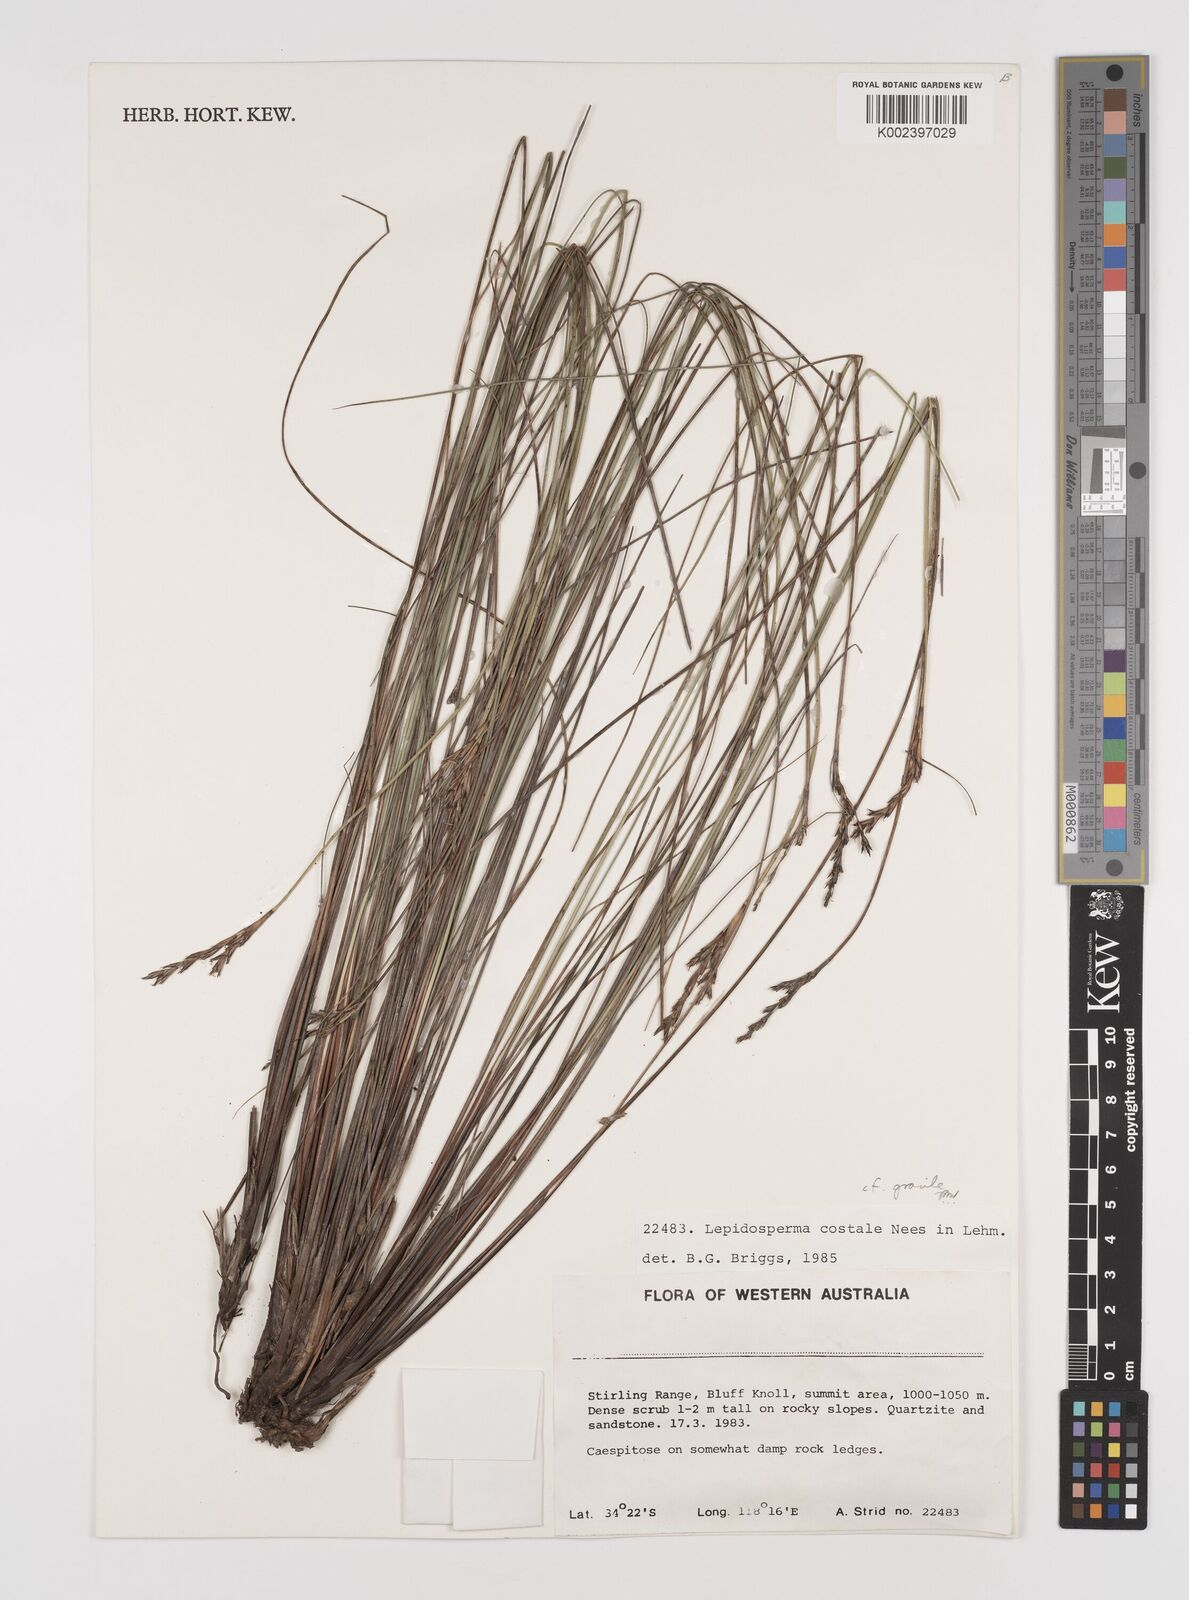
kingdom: Plantae
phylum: Tracheophyta
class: Liliopsida
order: Poales
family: Cyperaceae
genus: Lepidosperma
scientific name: Lepidosperma gracile
